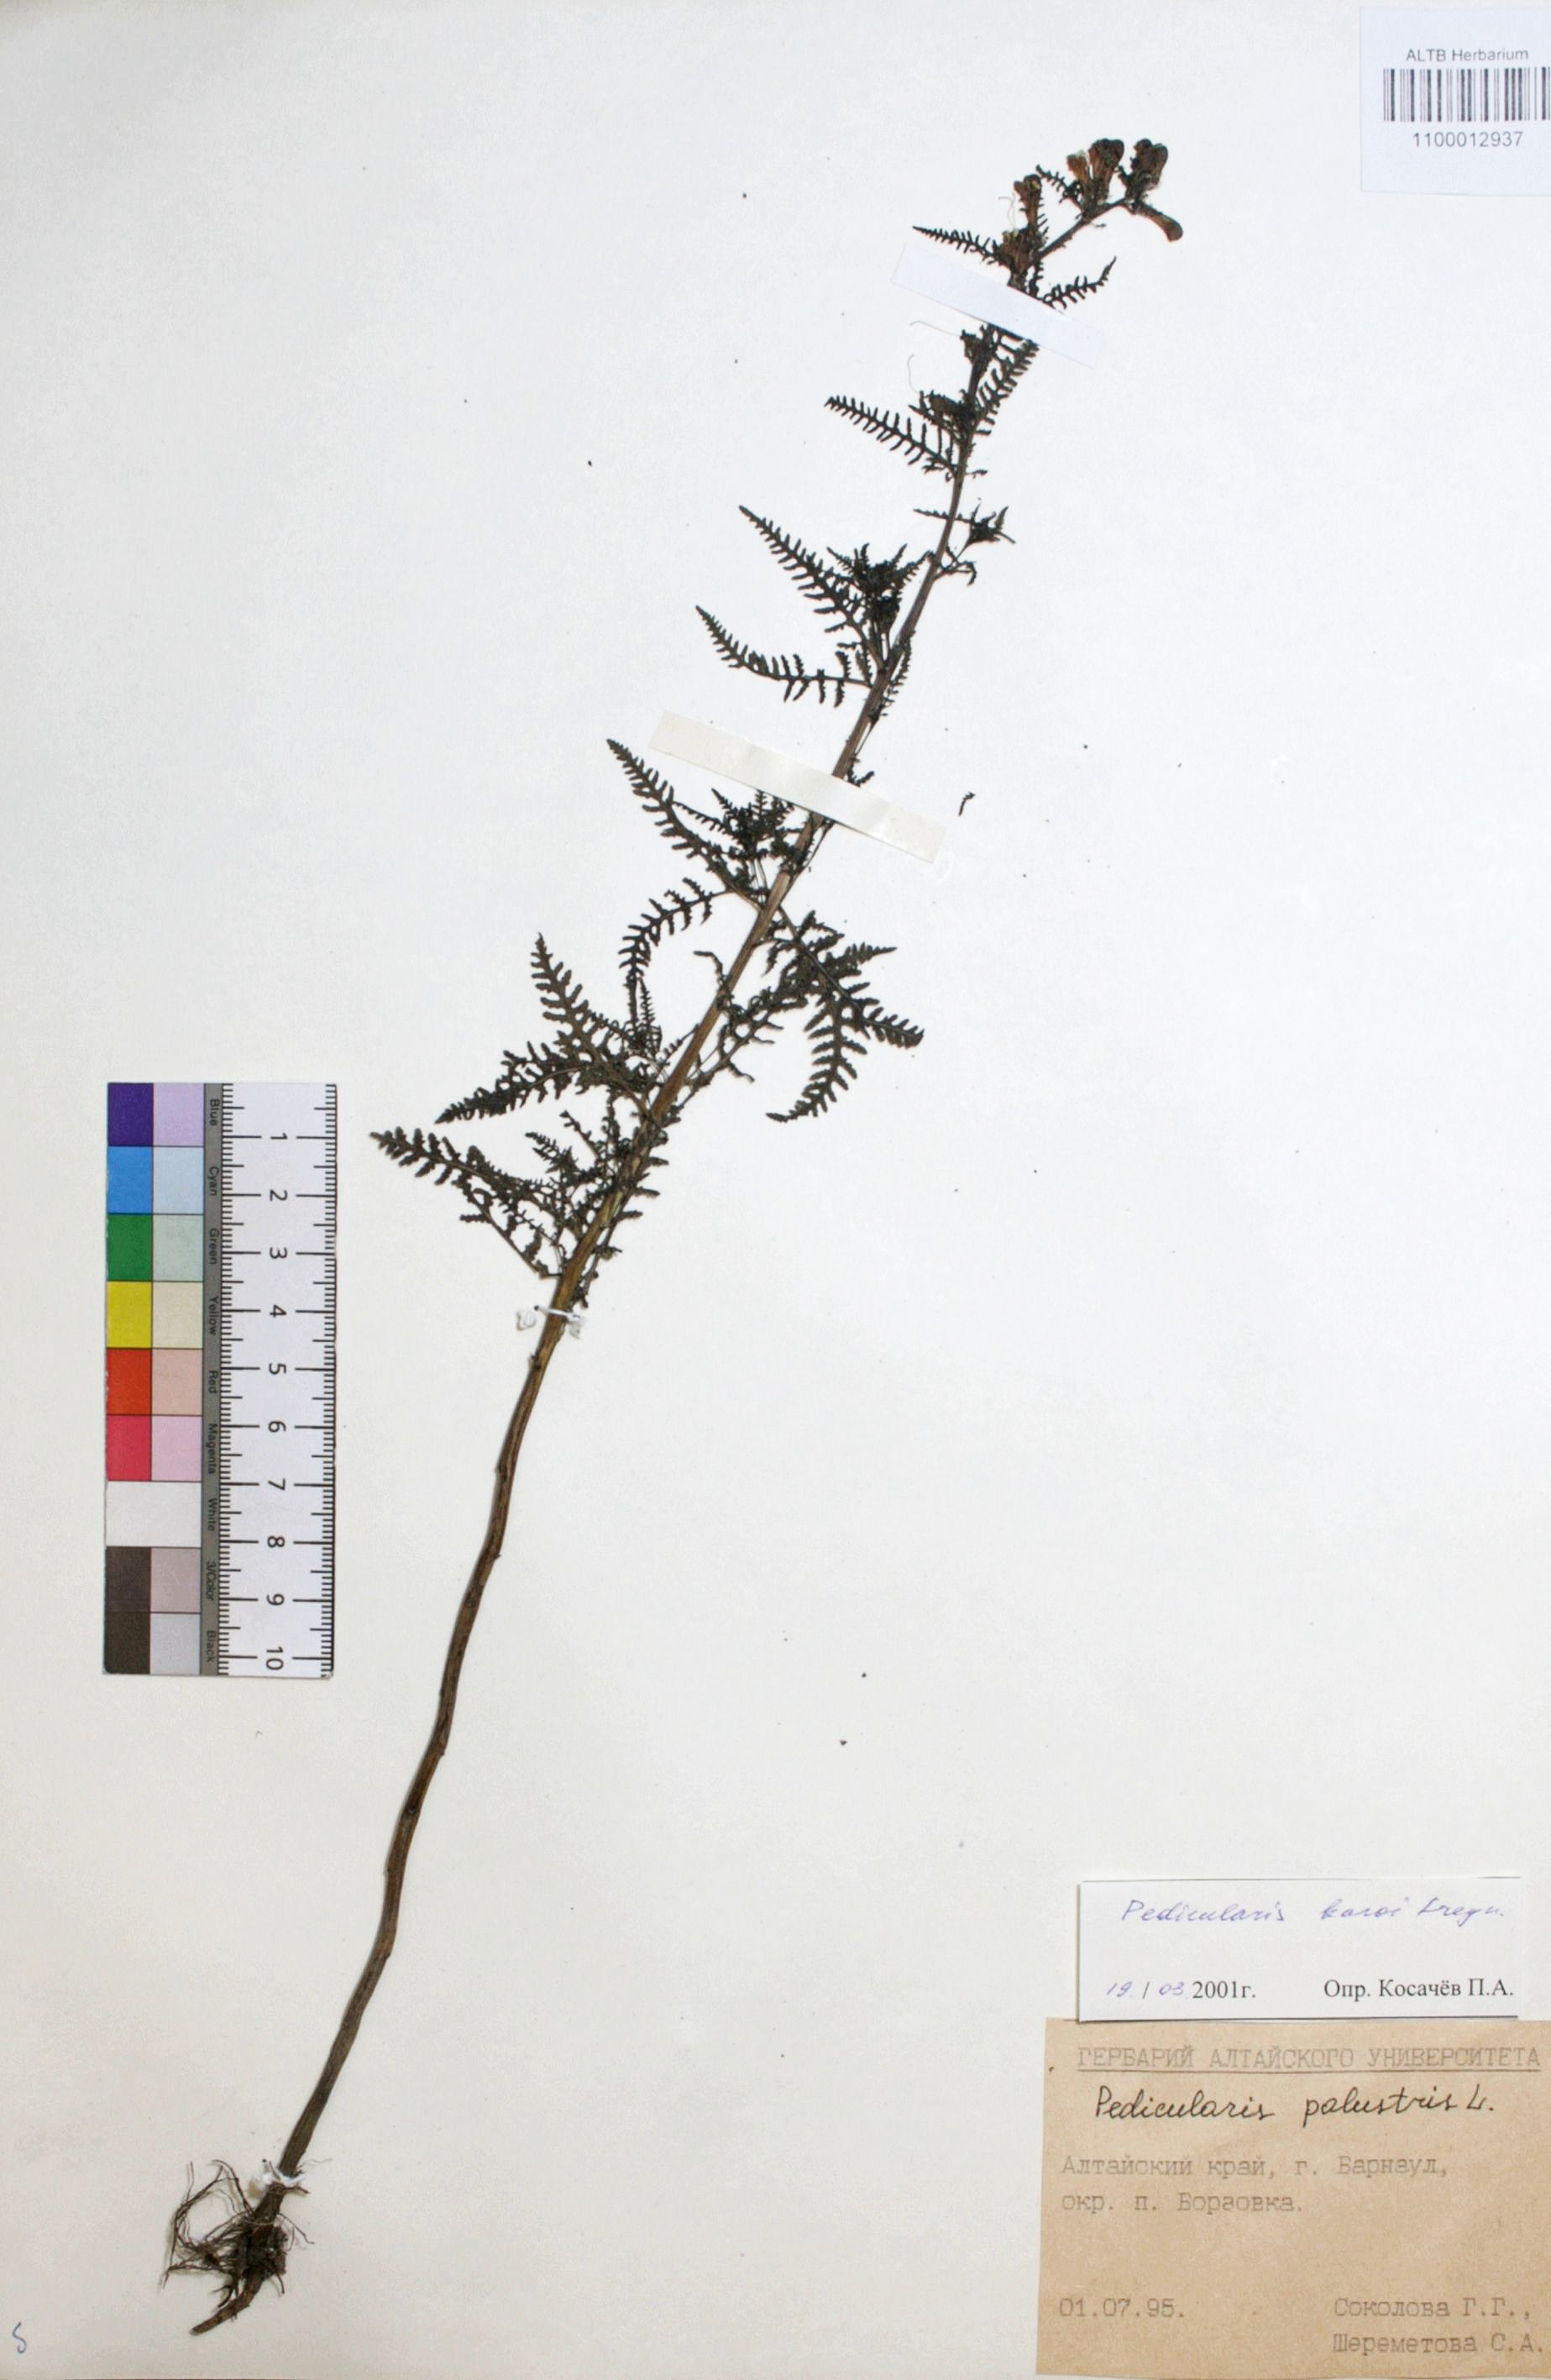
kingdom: Plantae
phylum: Tracheophyta
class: Magnoliopsida
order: Lamiales
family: Orobanchaceae
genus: Pedicularis
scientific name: Pedicularis tristis
